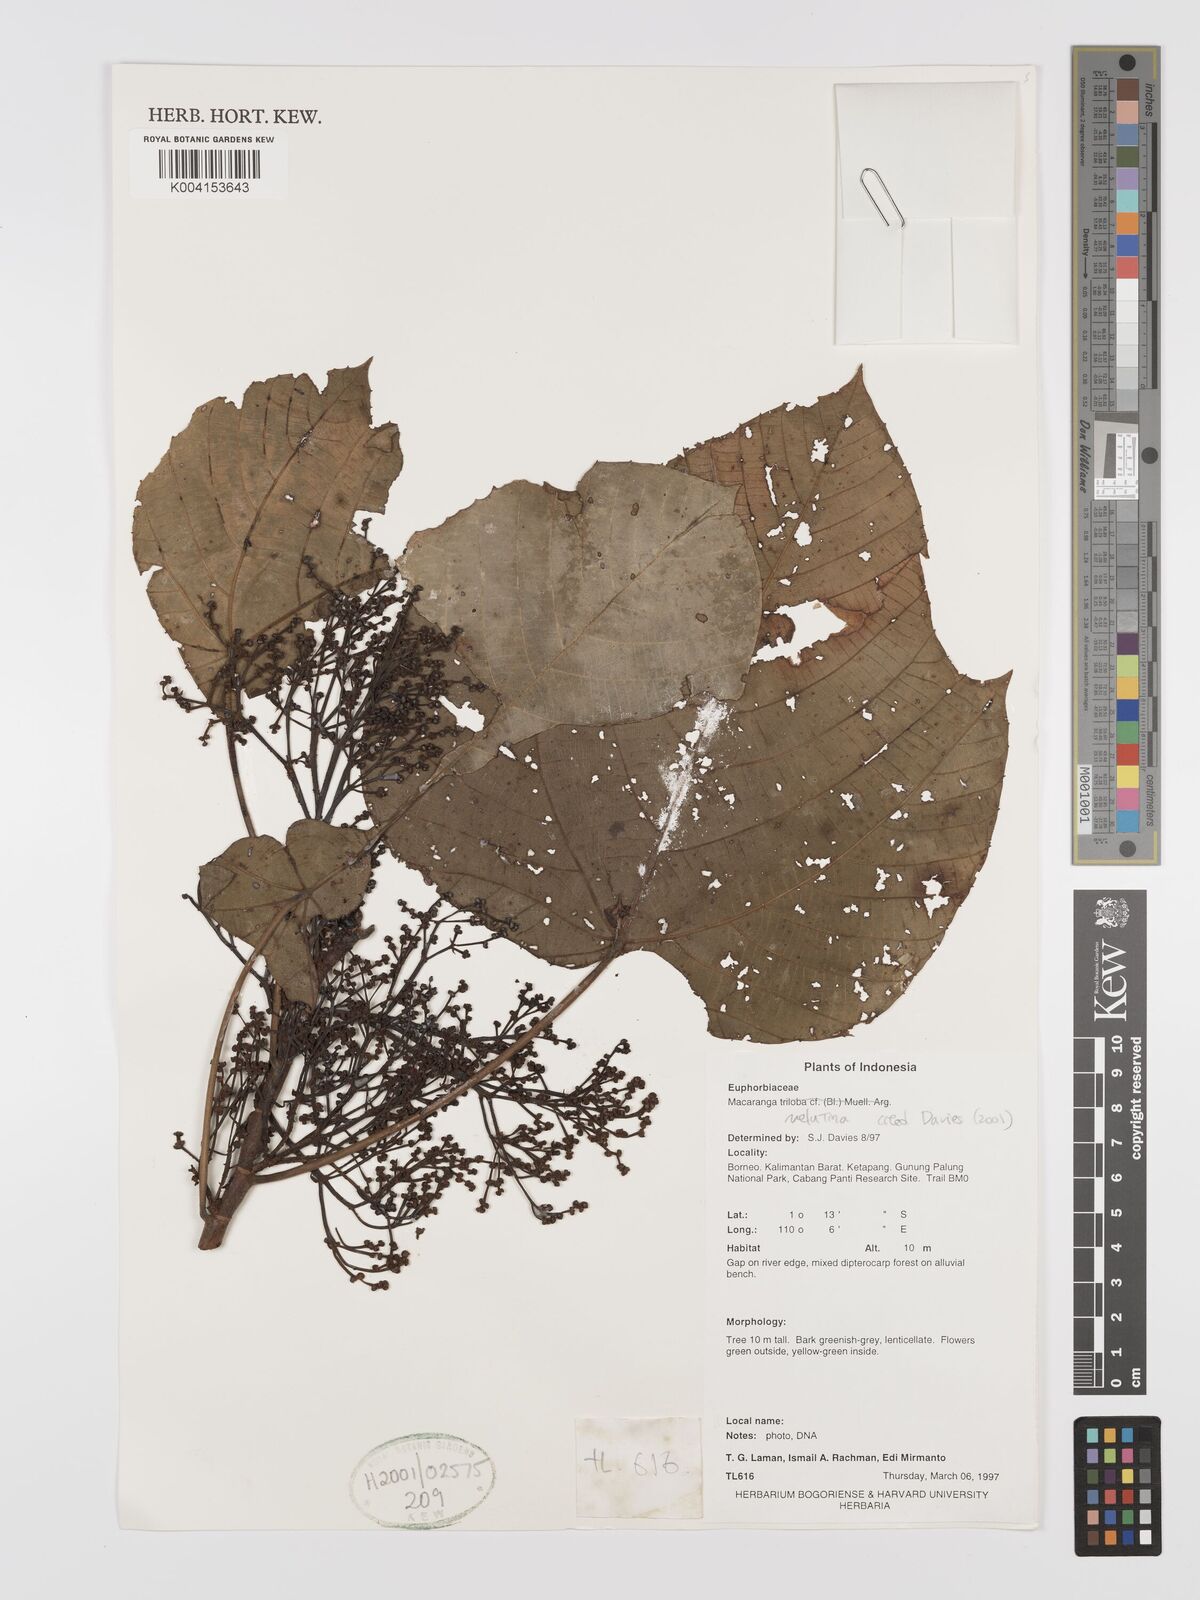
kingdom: Plantae
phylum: Tracheophyta
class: Magnoliopsida
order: Malpighiales
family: Euphorbiaceae
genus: Macaranga
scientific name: Macaranga triloba
